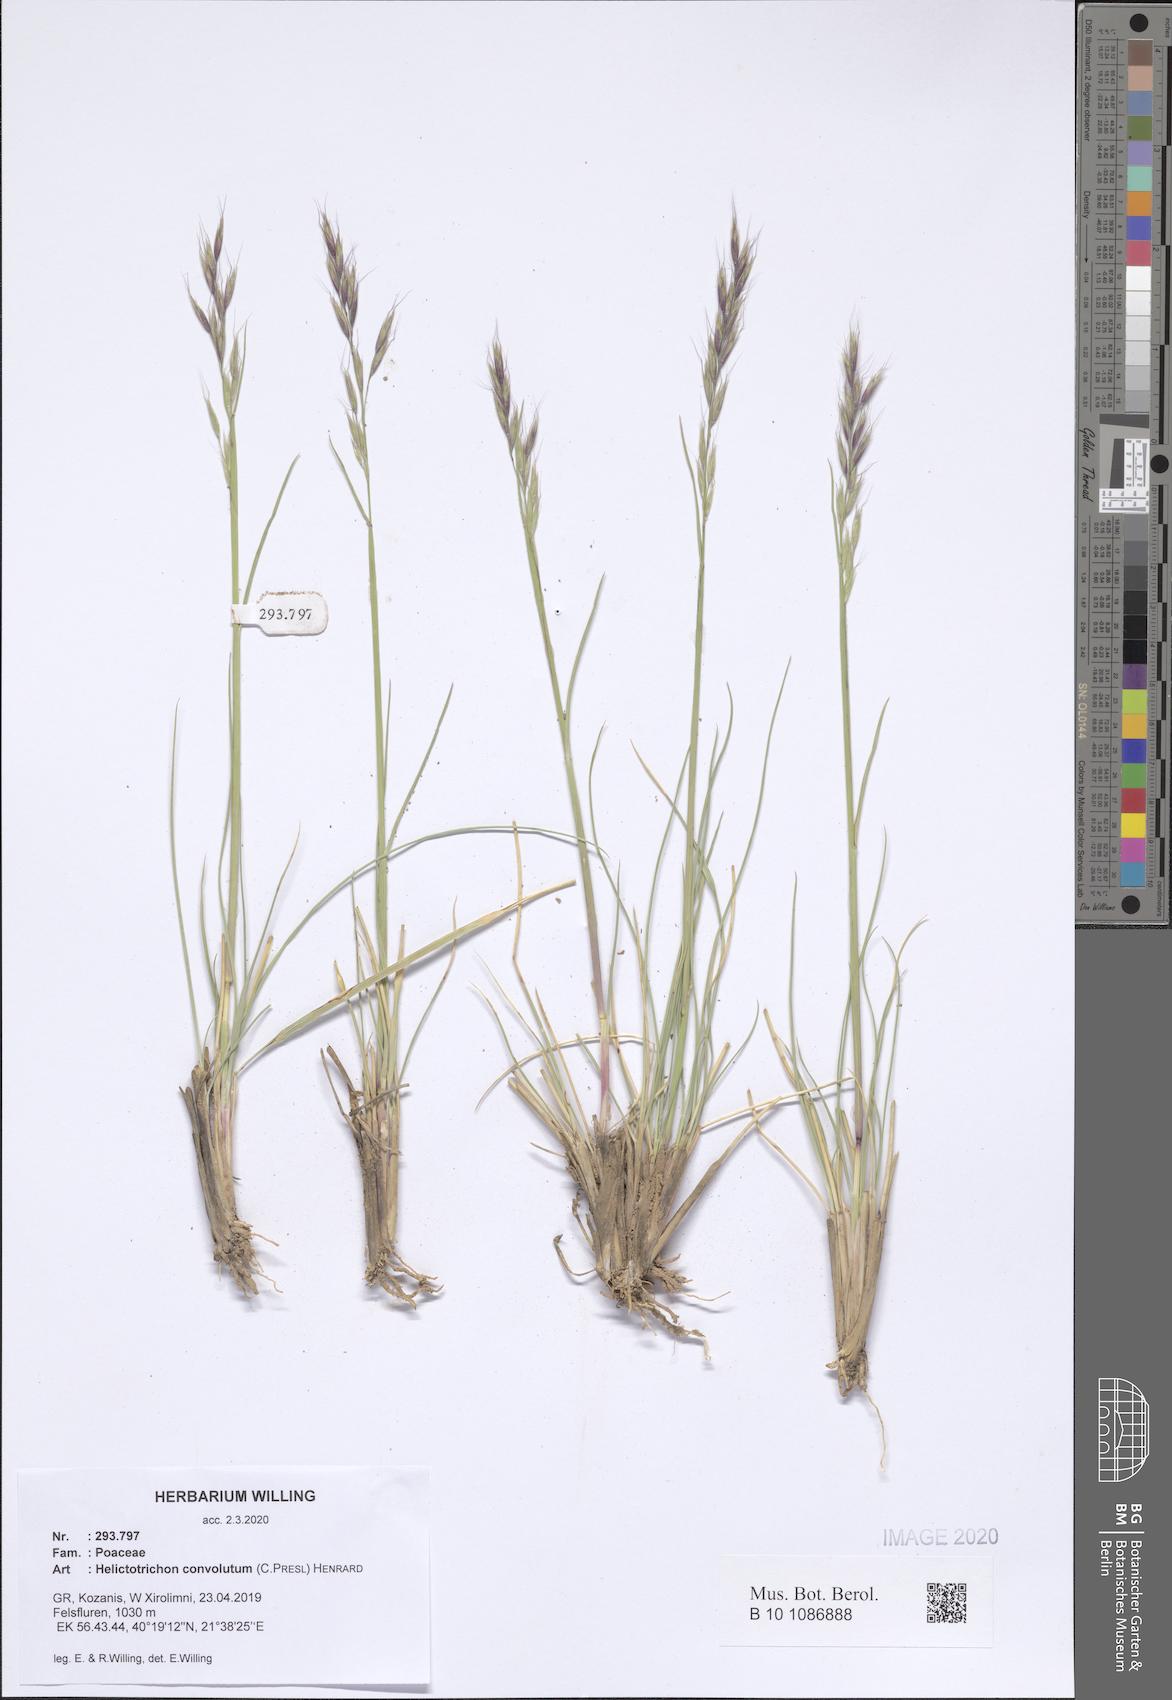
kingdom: Plantae
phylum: Tracheophyta
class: Liliopsida
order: Poales
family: Poaceae
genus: Helictotrichon
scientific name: Helictotrichon convolutum
